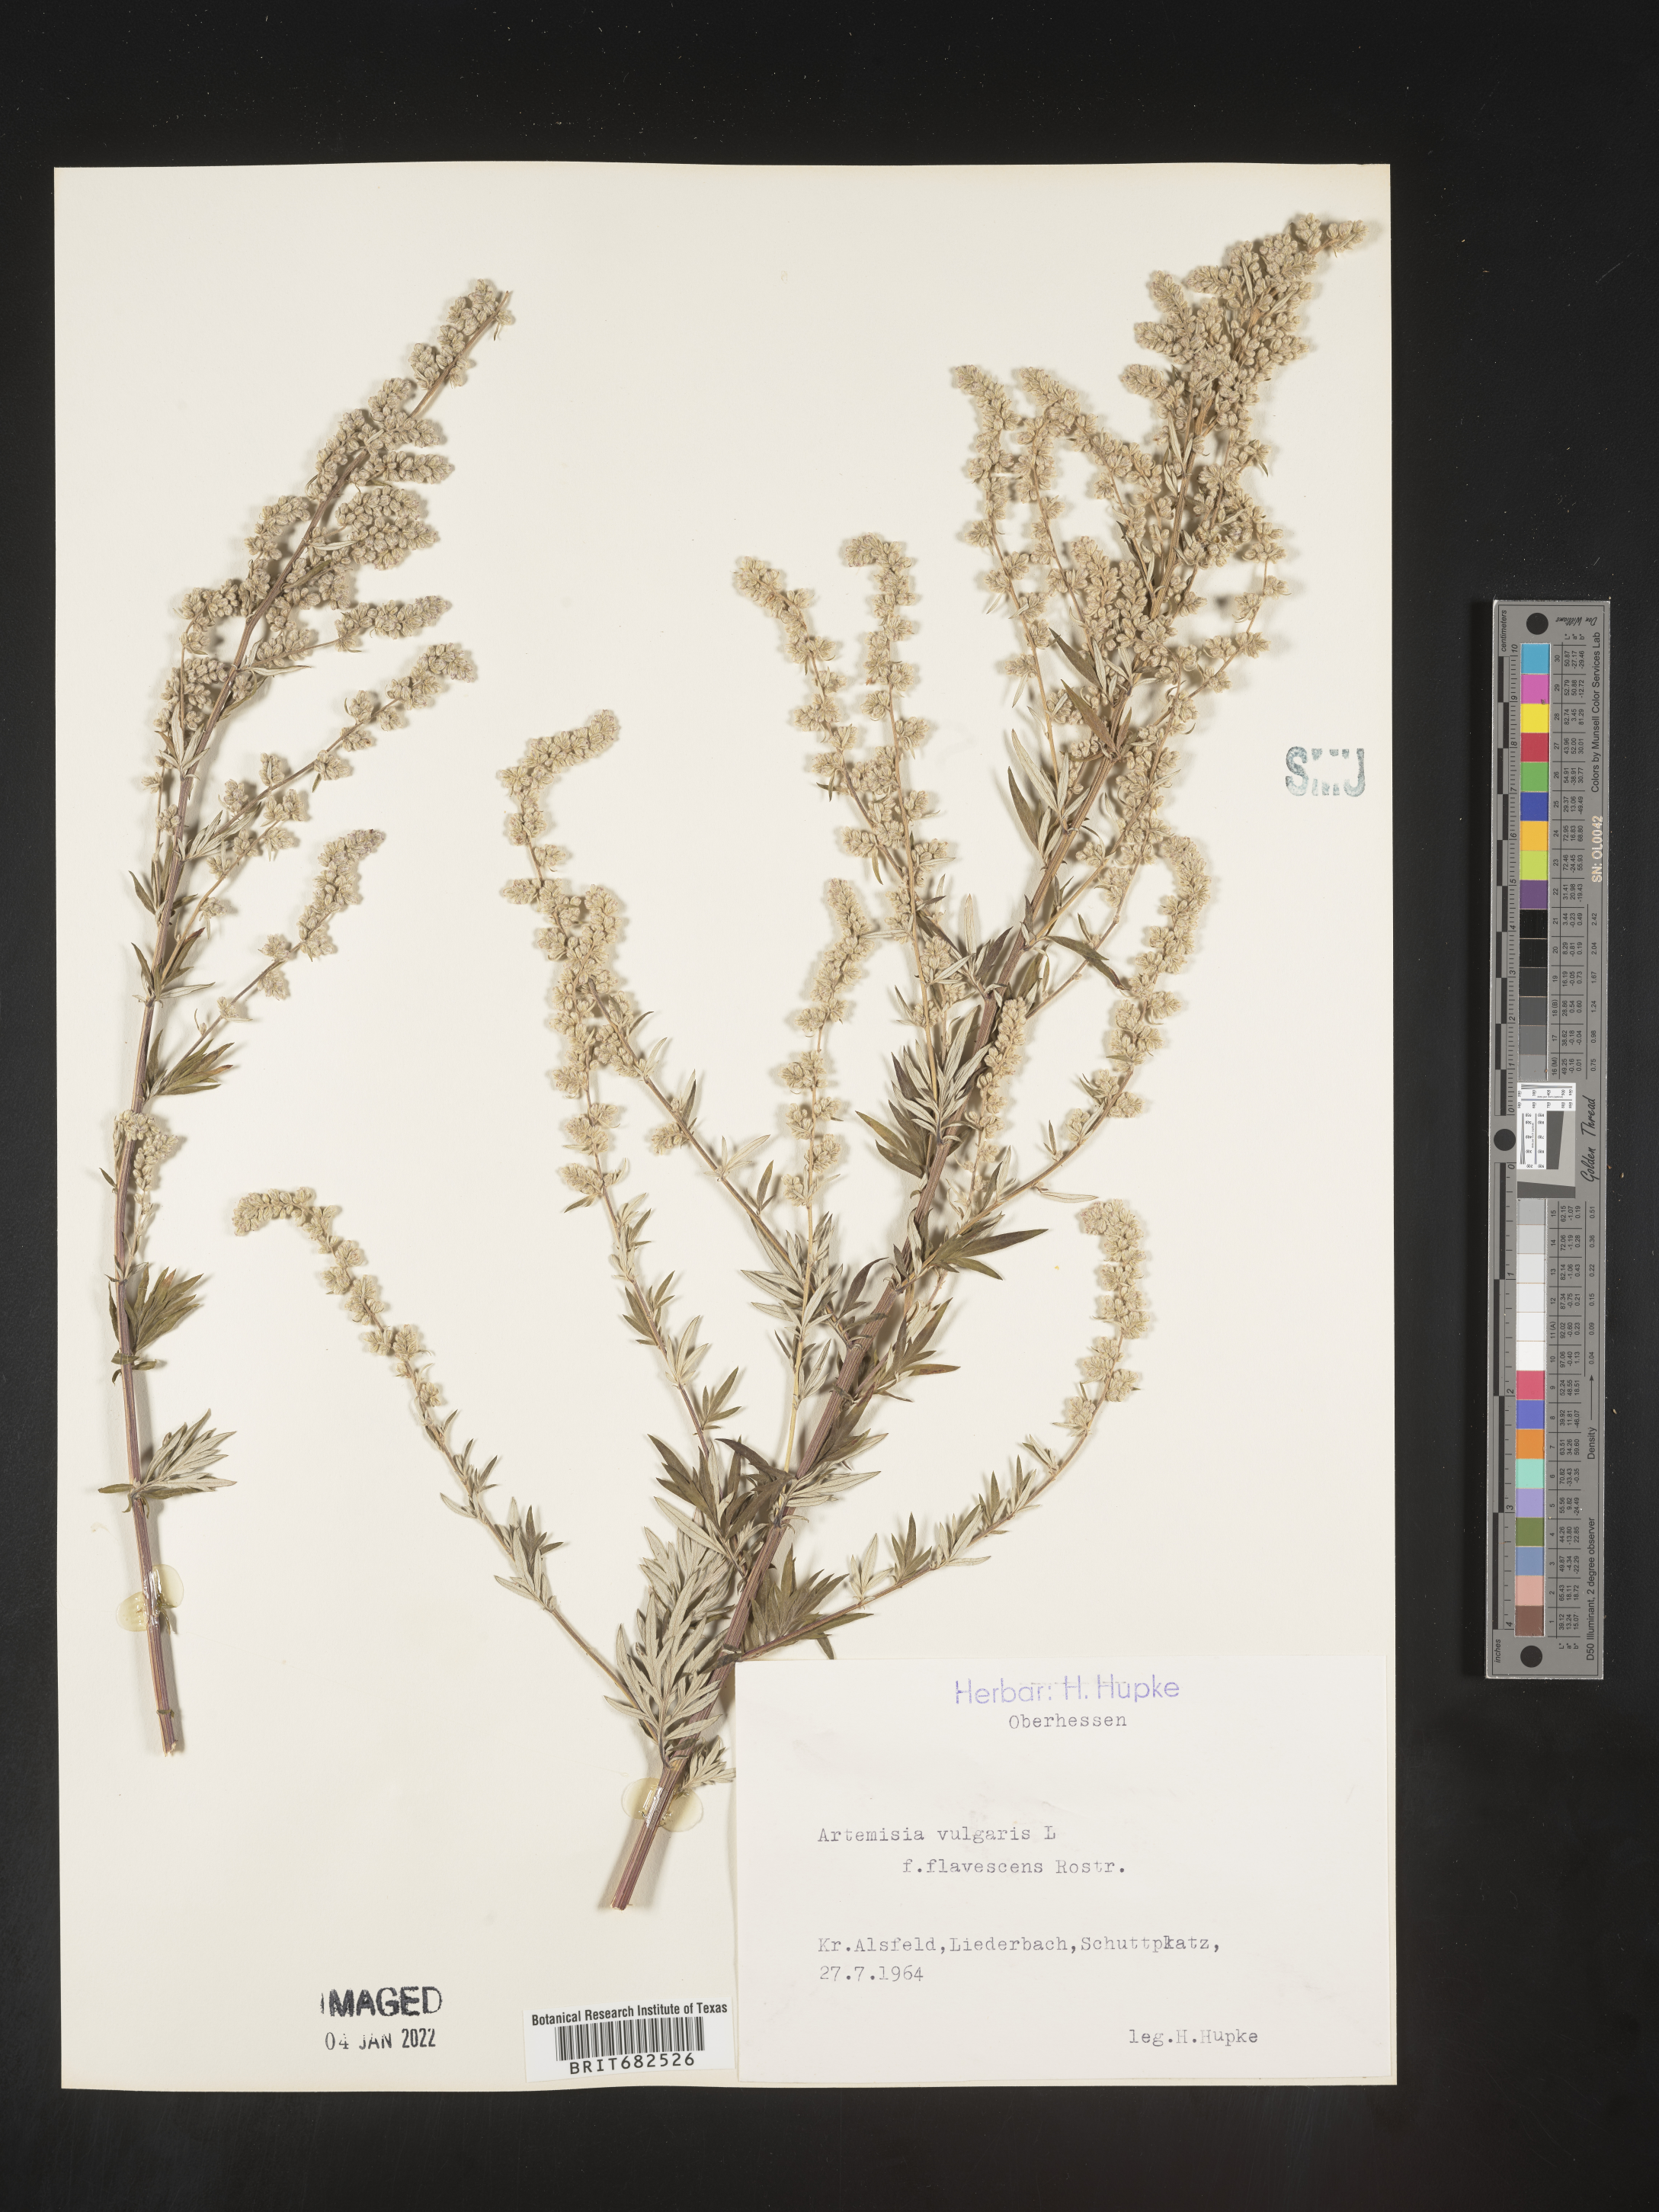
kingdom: Plantae
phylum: Tracheophyta
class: Magnoliopsida
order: Asterales
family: Asteraceae
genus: Artemisia
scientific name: Artemisia
